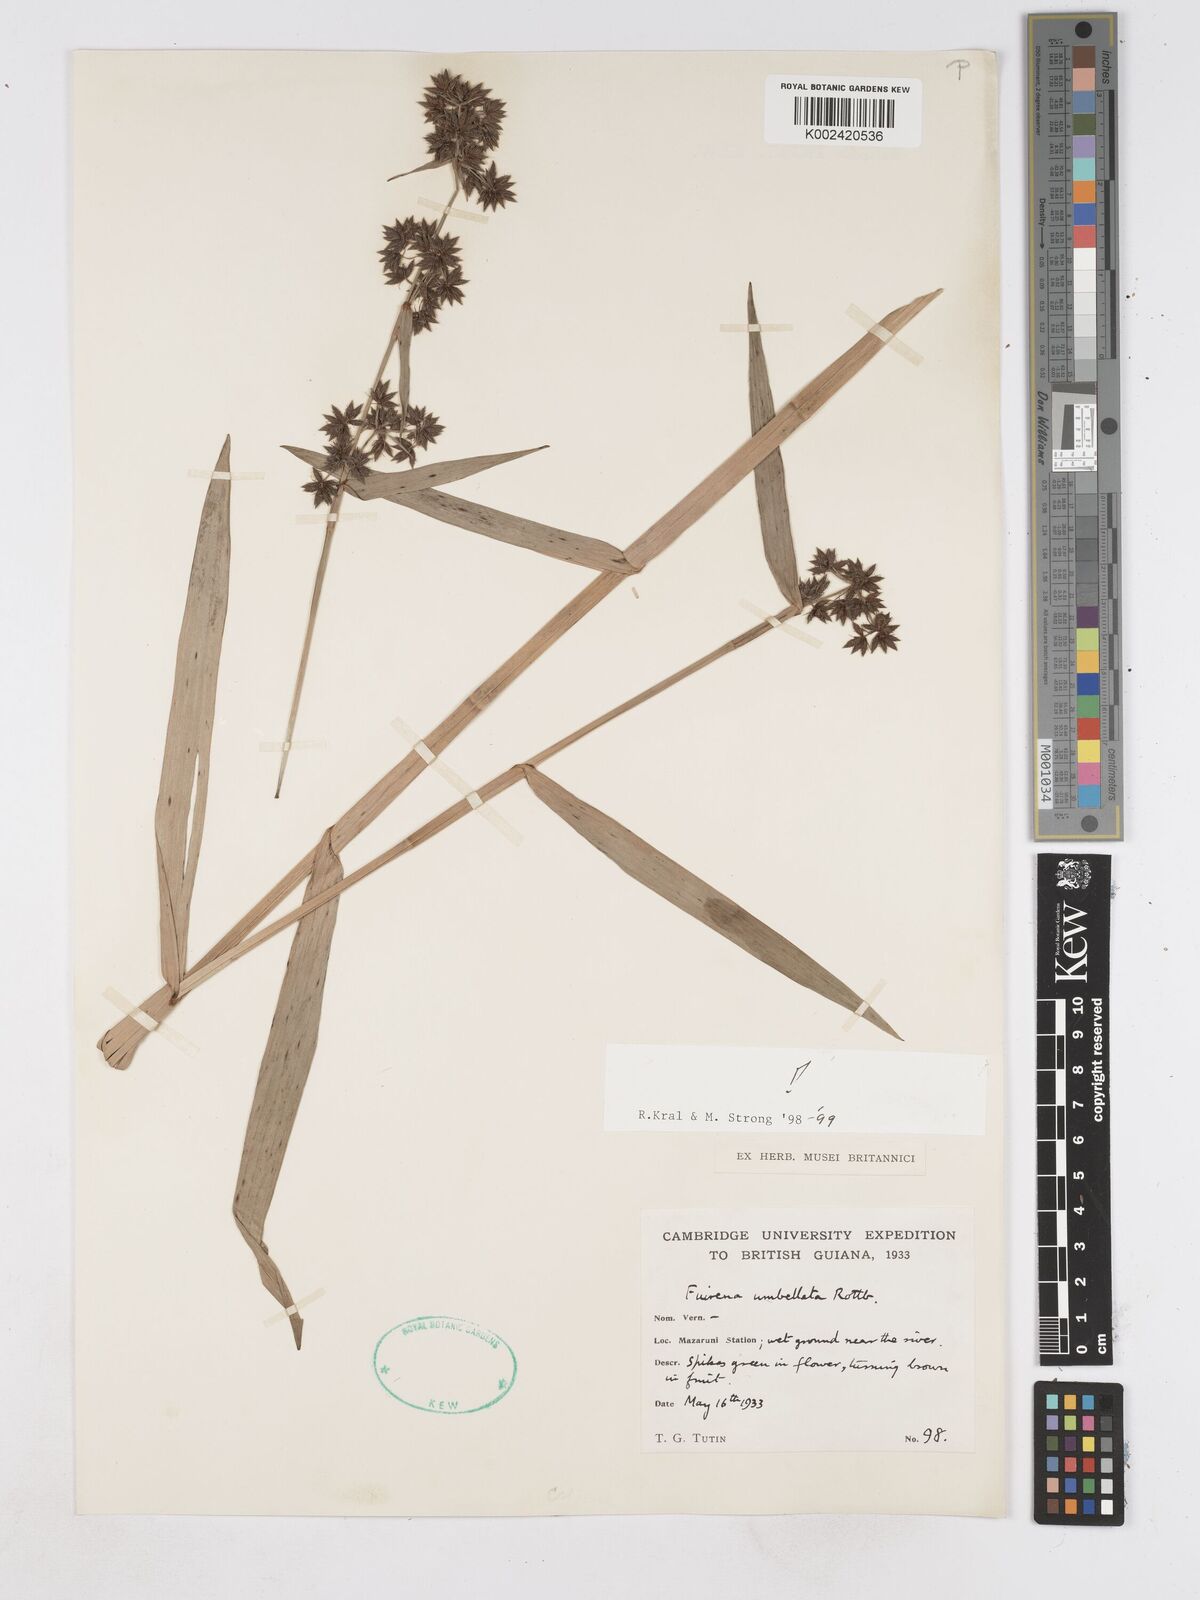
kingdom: Plantae
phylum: Tracheophyta
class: Liliopsida
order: Poales
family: Cyperaceae
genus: Fuirena
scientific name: Fuirena umbellata
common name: Yefen
